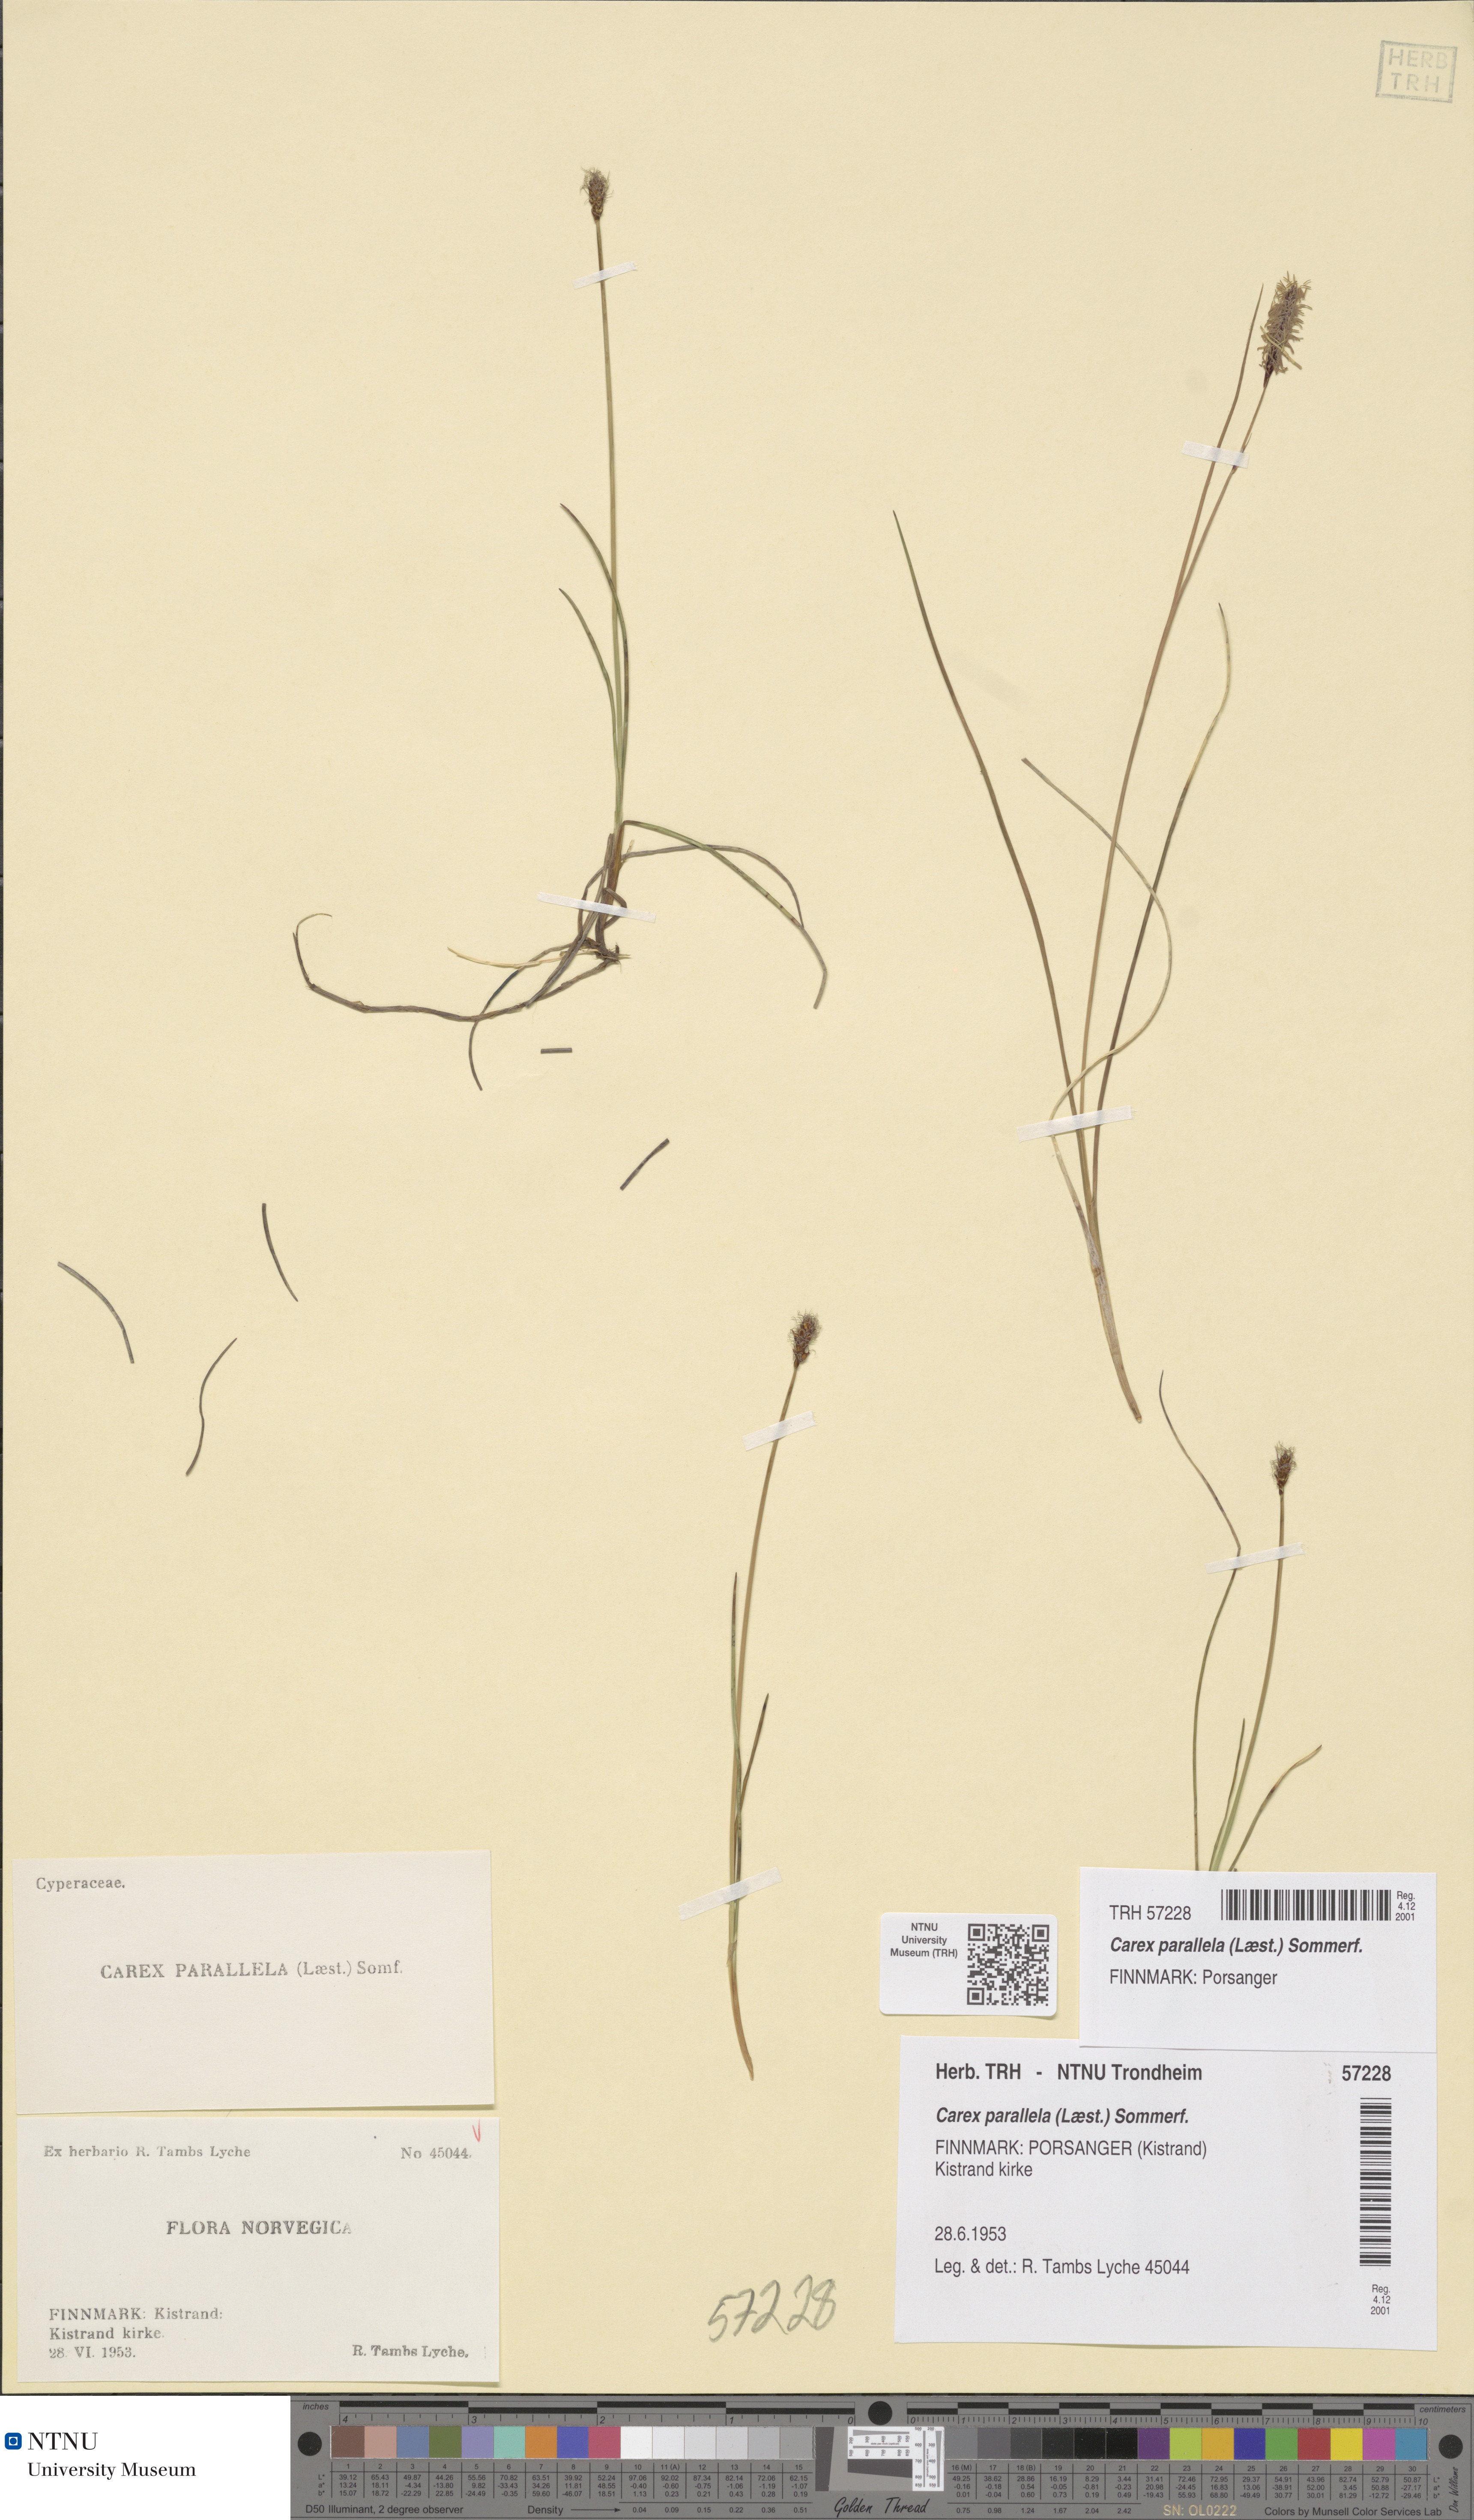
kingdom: Plantae
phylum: Tracheophyta
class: Liliopsida
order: Poales
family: Cyperaceae
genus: Carex
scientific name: Carex parallela
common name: Parallel sedge
